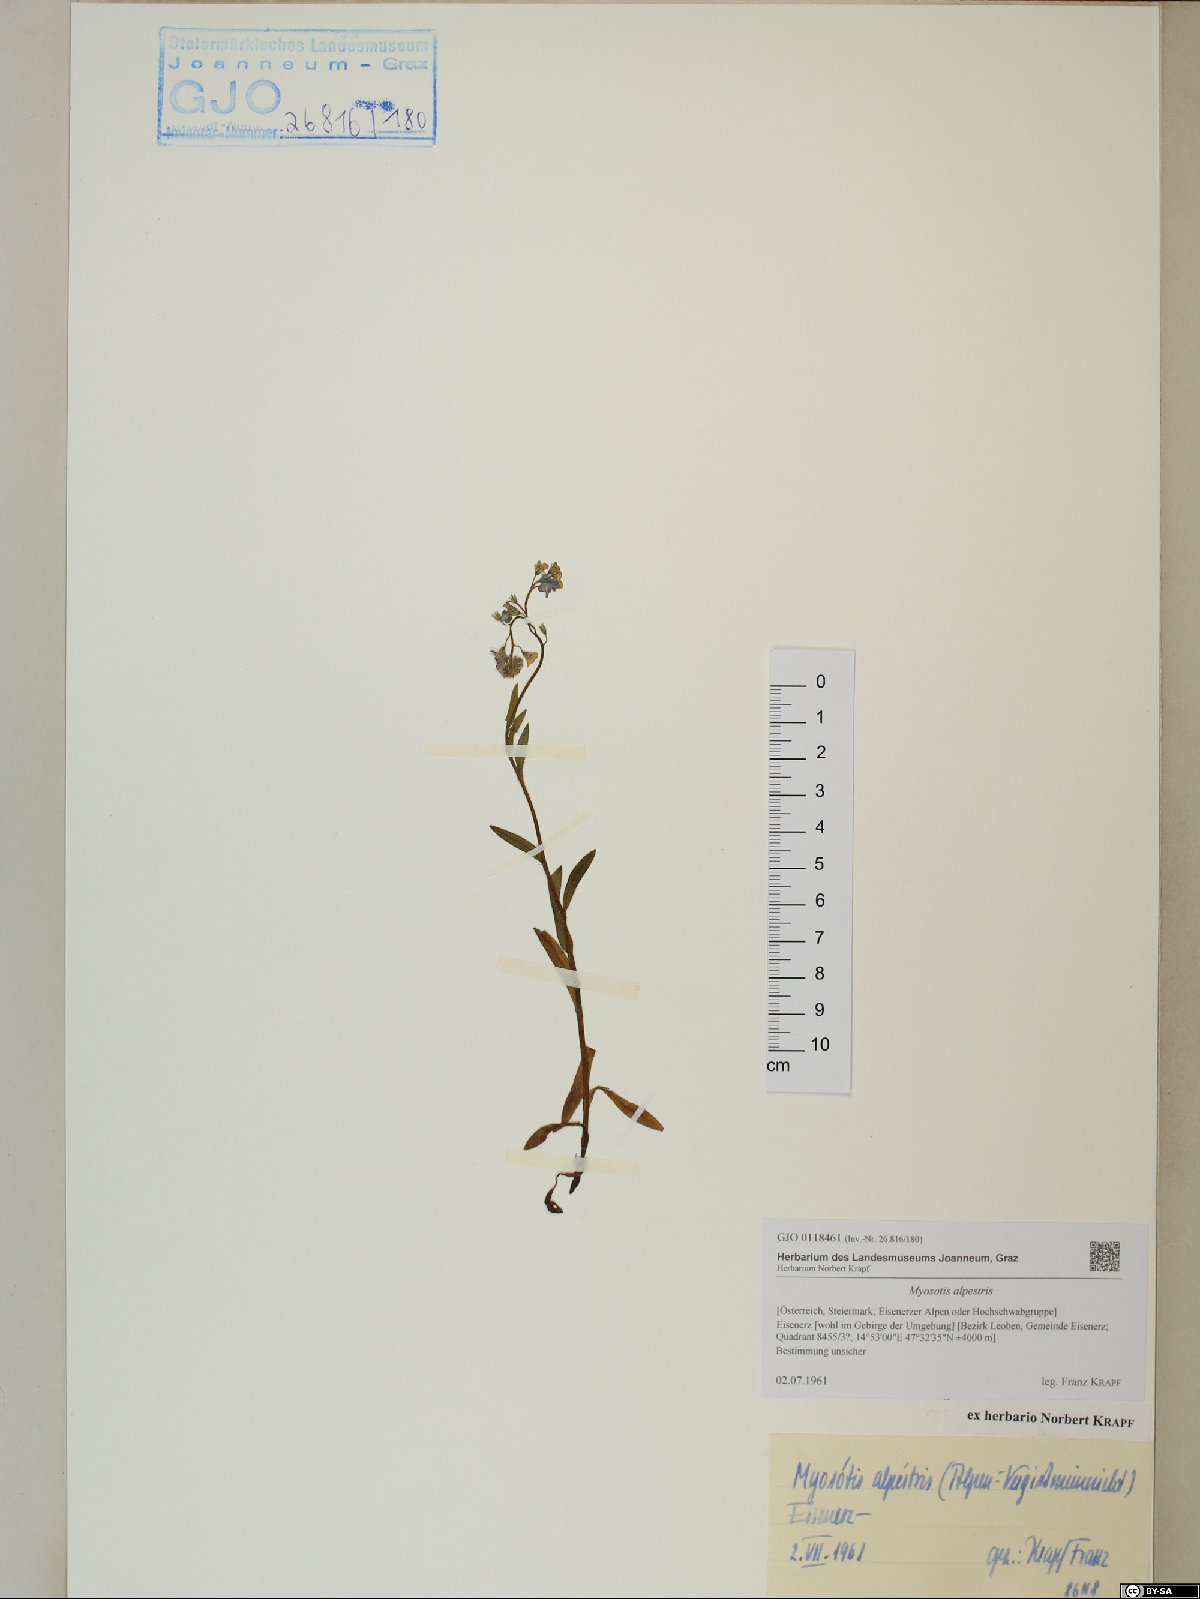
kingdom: Plantae
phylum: Tracheophyta
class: Magnoliopsida
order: Boraginales
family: Boraginaceae
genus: Myosotis
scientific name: Myosotis alpestris
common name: Alpine forget-me-not
